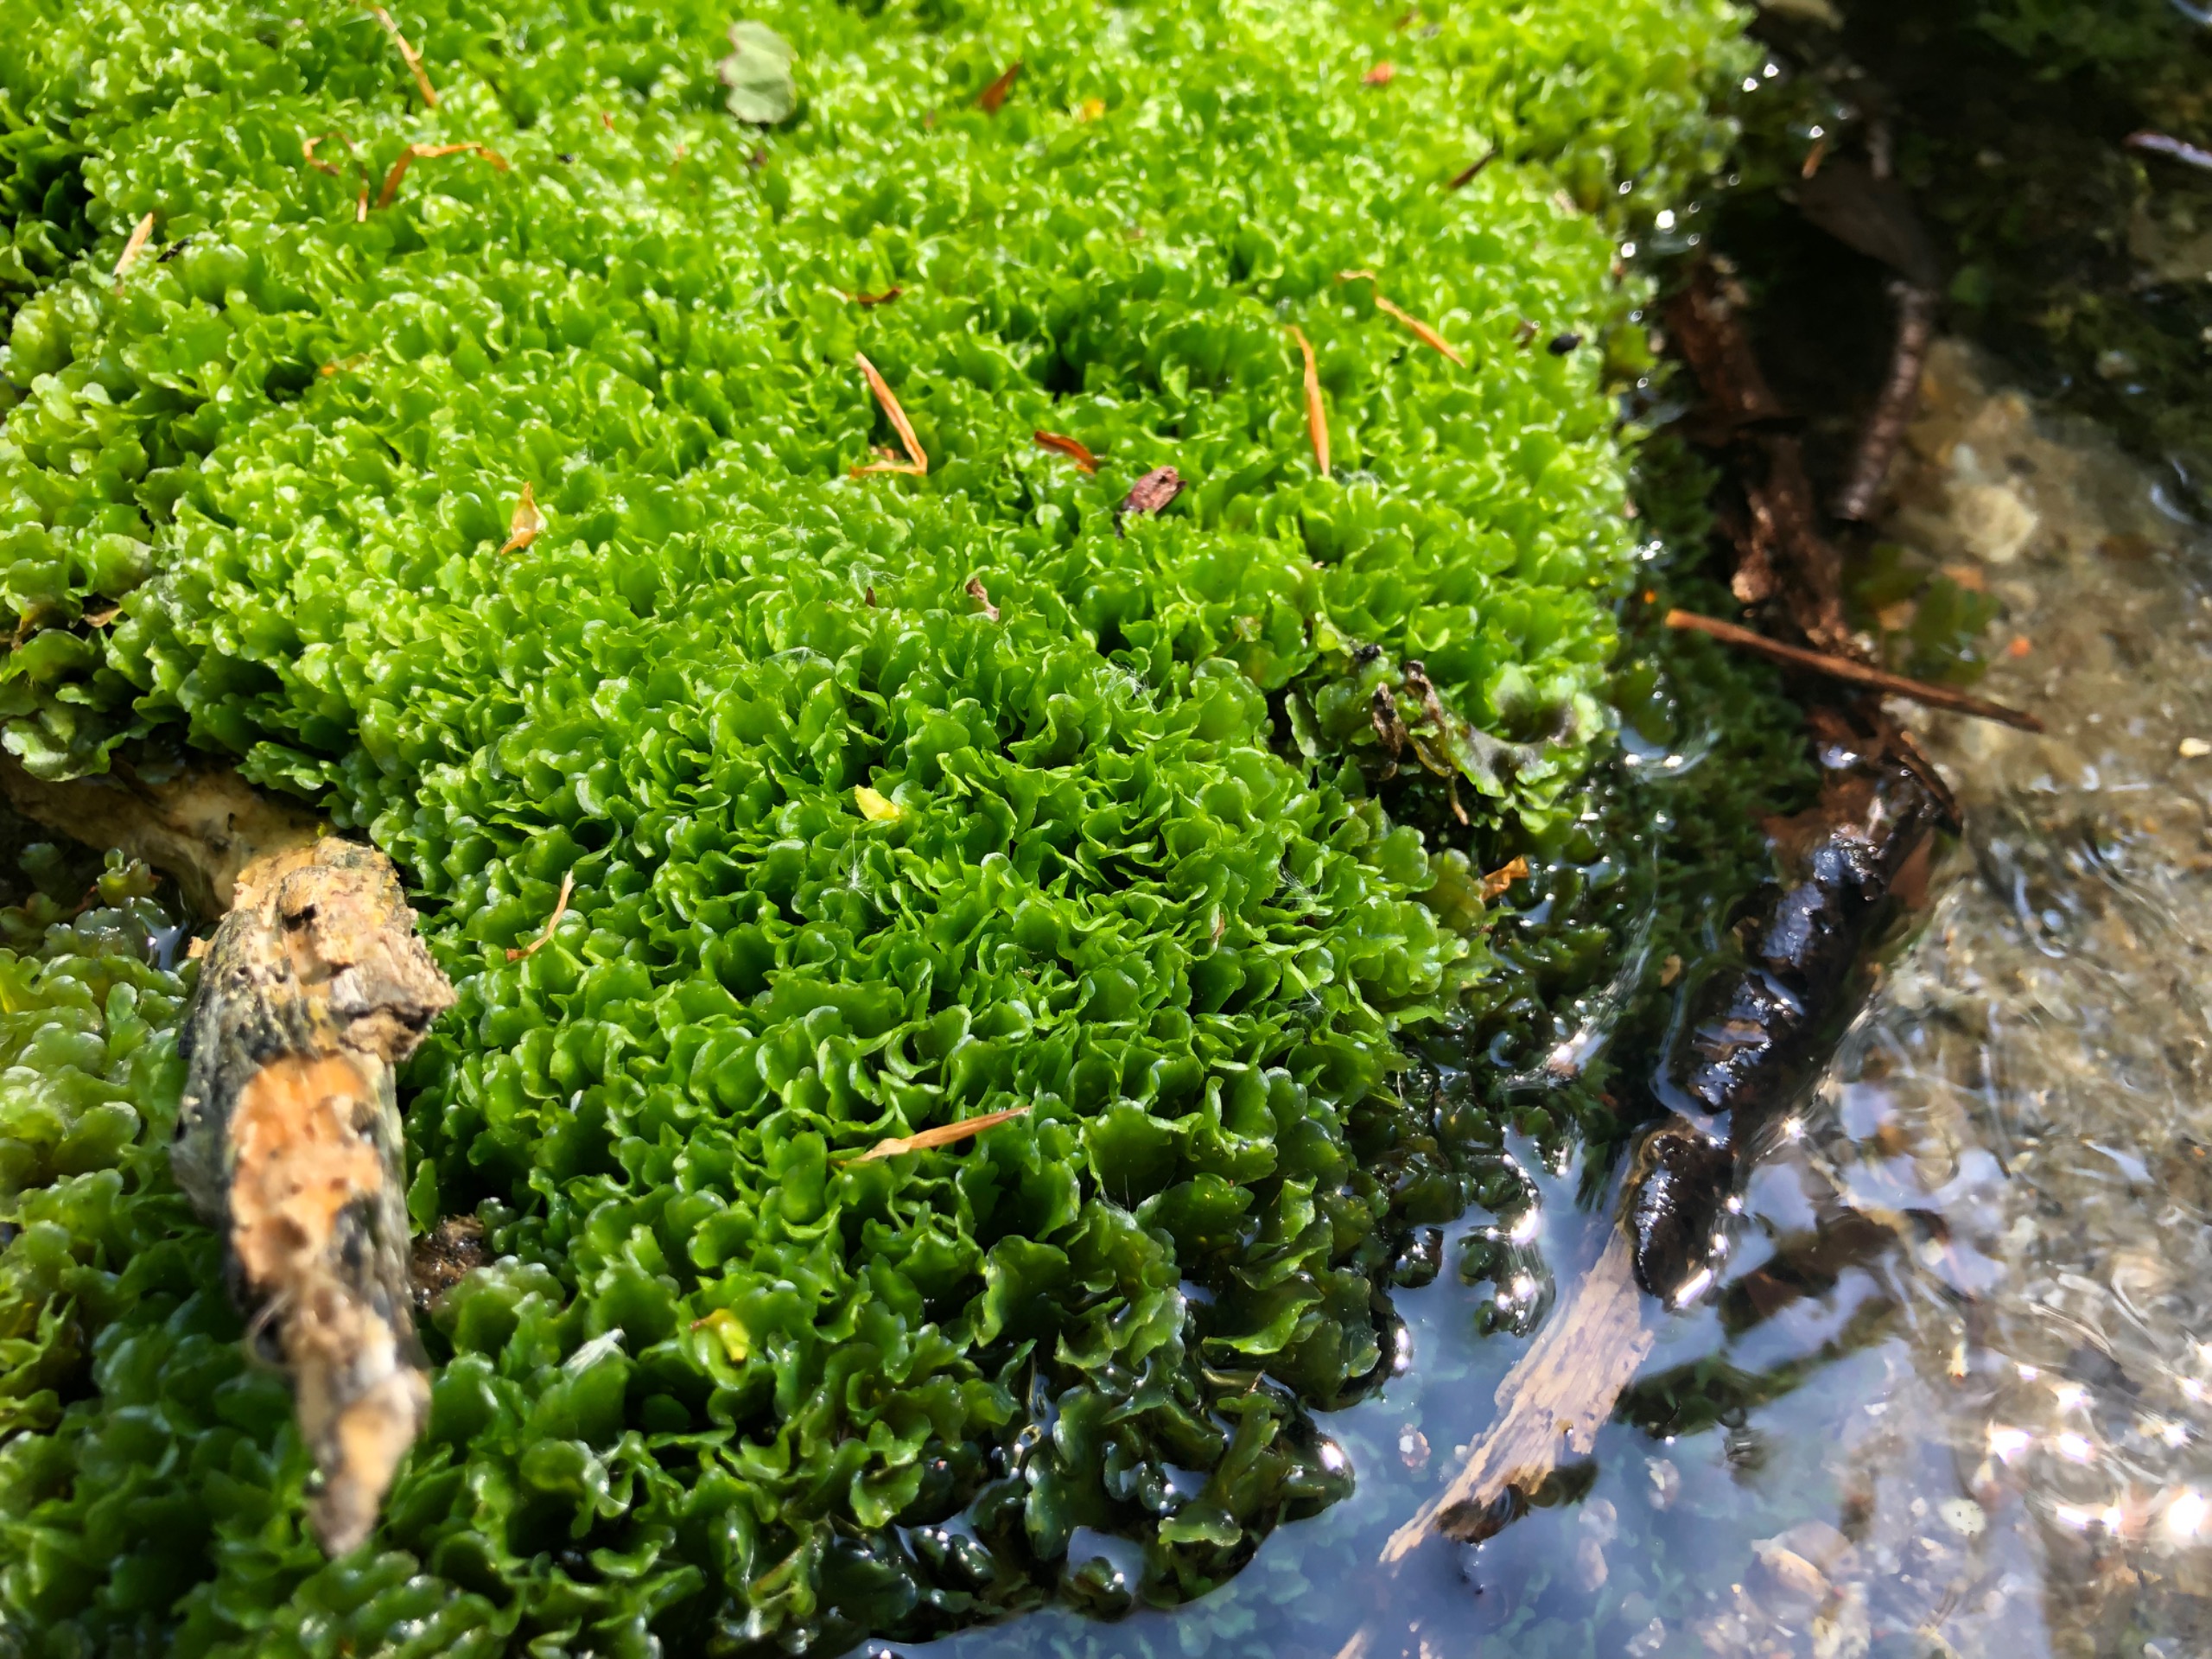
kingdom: Plantae
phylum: Marchantiophyta
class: Jungermanniopsida
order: Pelliales
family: Pelliaceae
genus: Pellia
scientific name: Pellia
